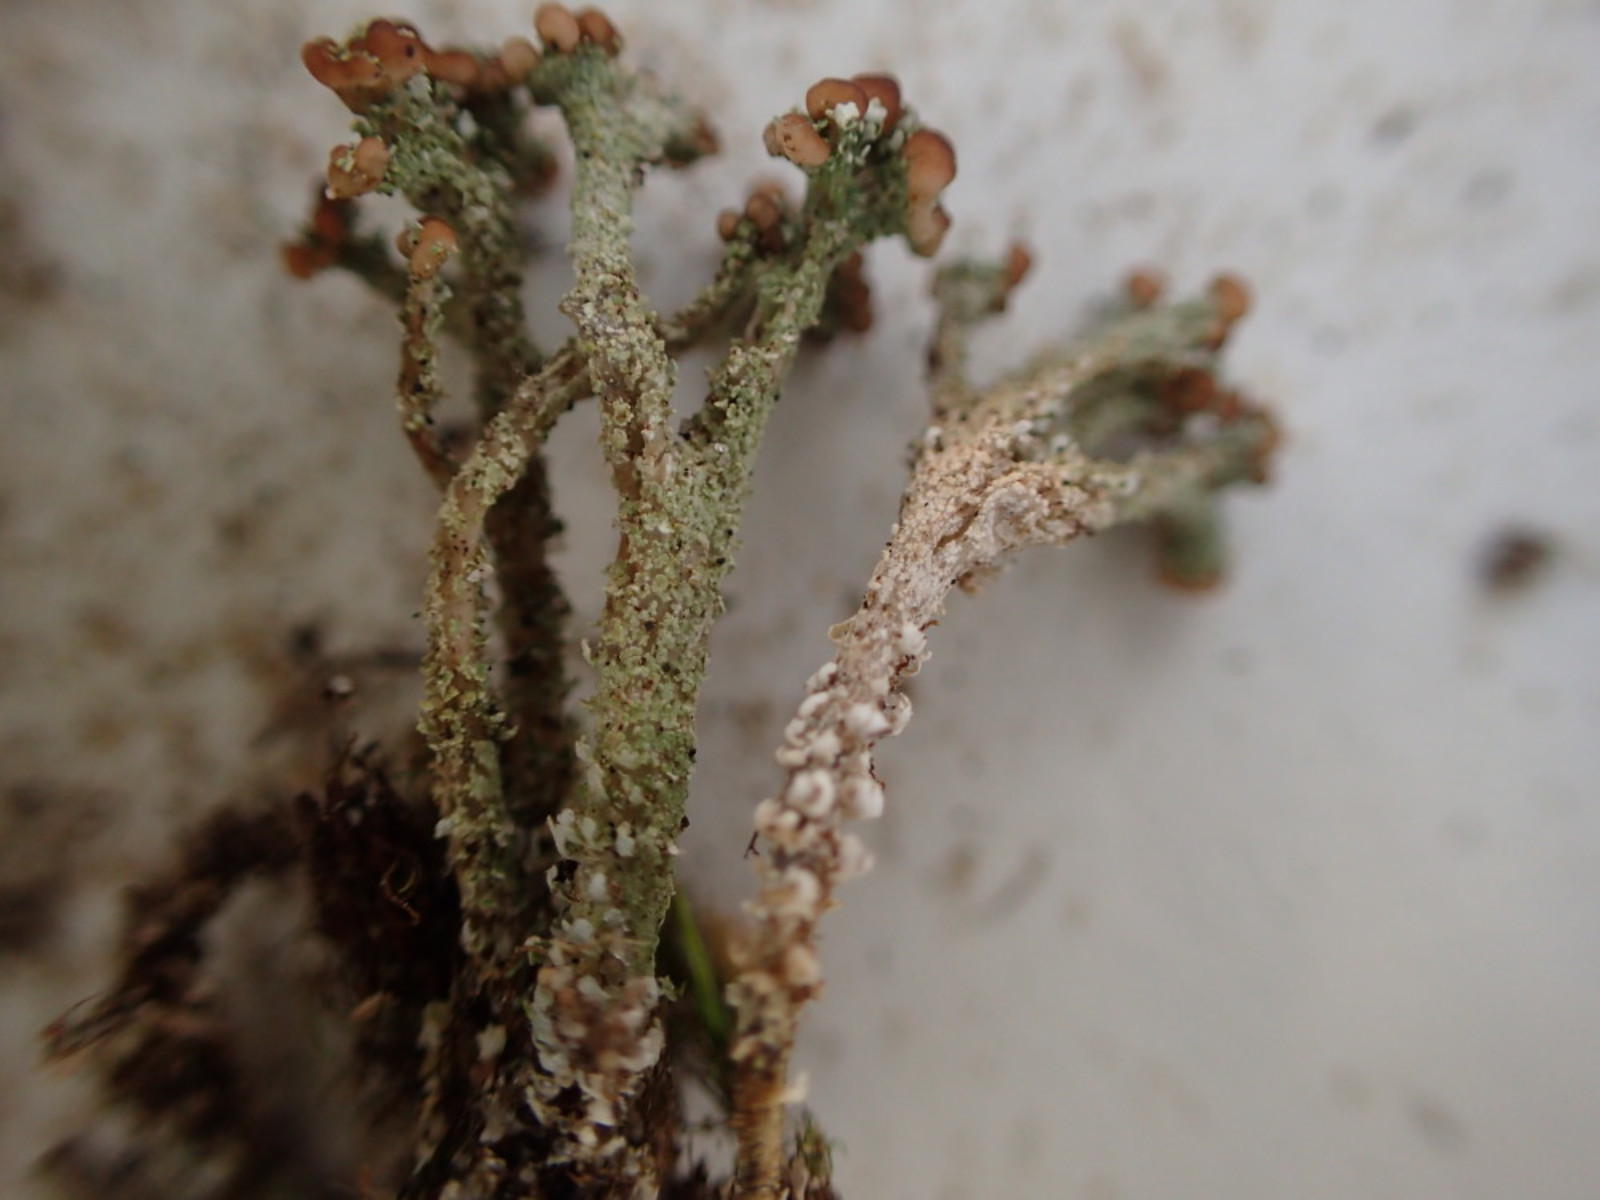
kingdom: Fungi
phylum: Ascomycota
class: Lecanoromycetes
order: Lecanorales
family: Cladoniaceae
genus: Cladonia
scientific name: Cladonia ramulosa
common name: kliddet bægerlav
